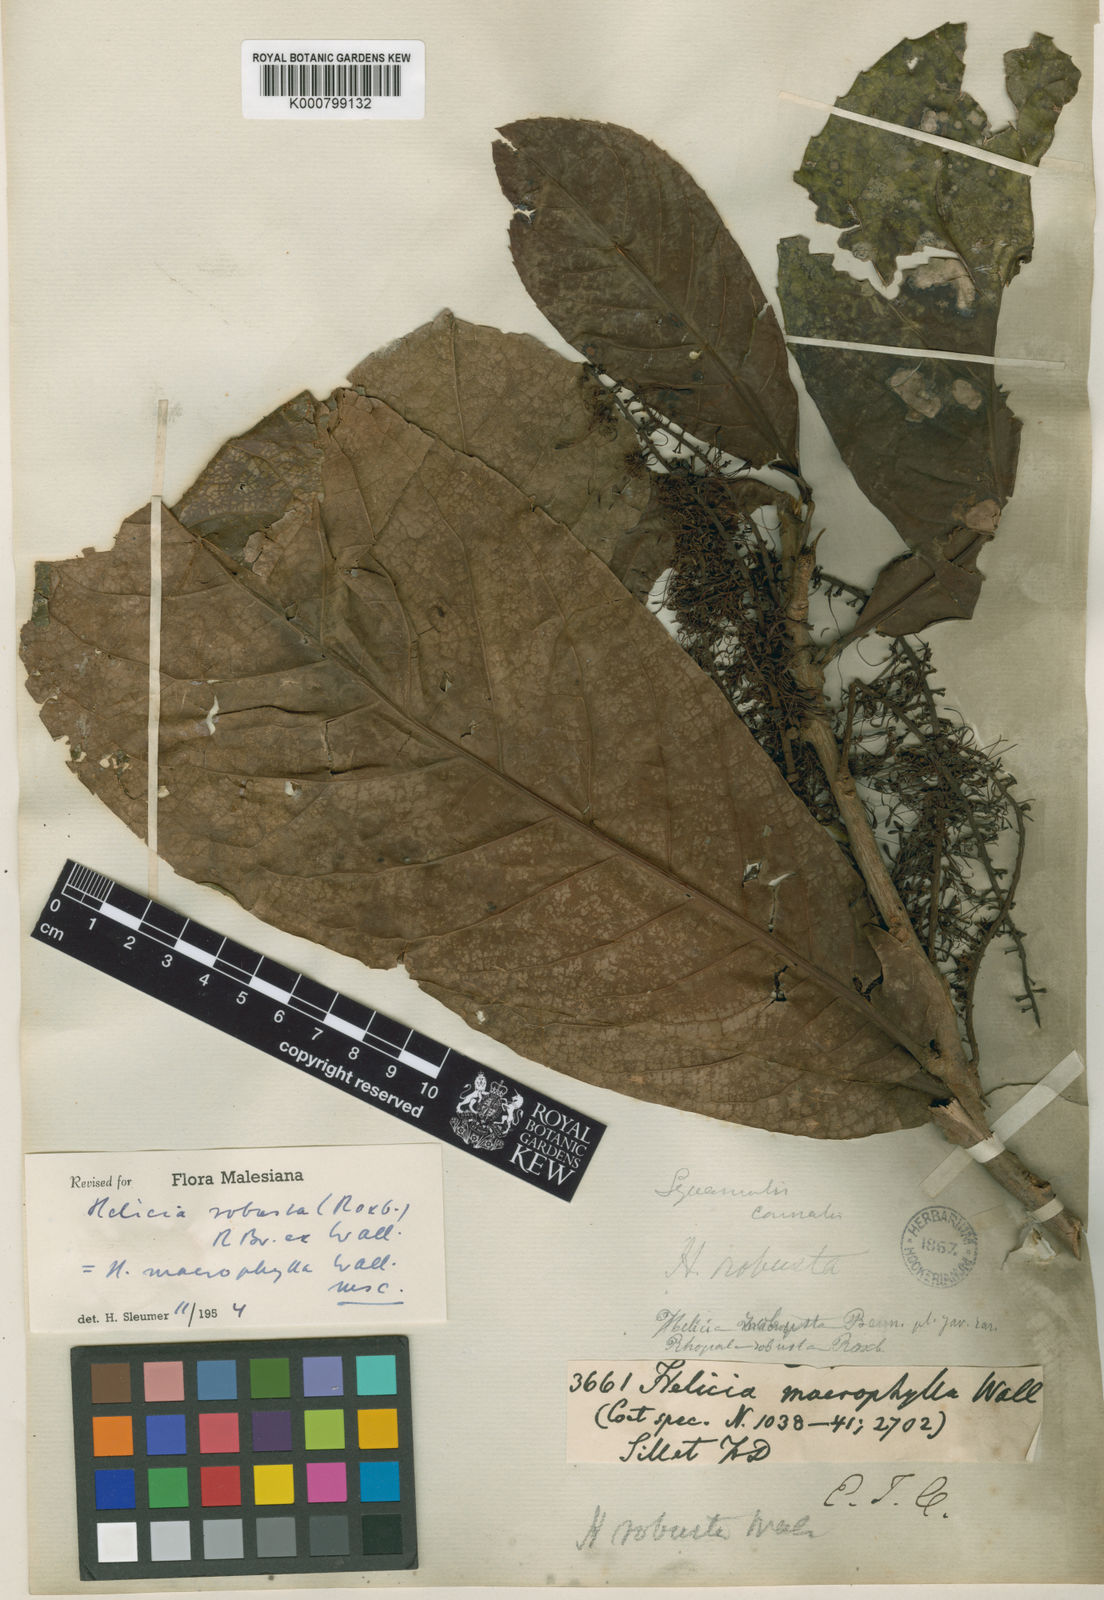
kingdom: Plantae
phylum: Tracheophyta
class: Magnoliopsida
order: Proteales
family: Proteaceae
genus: Helicia
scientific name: Helicia
